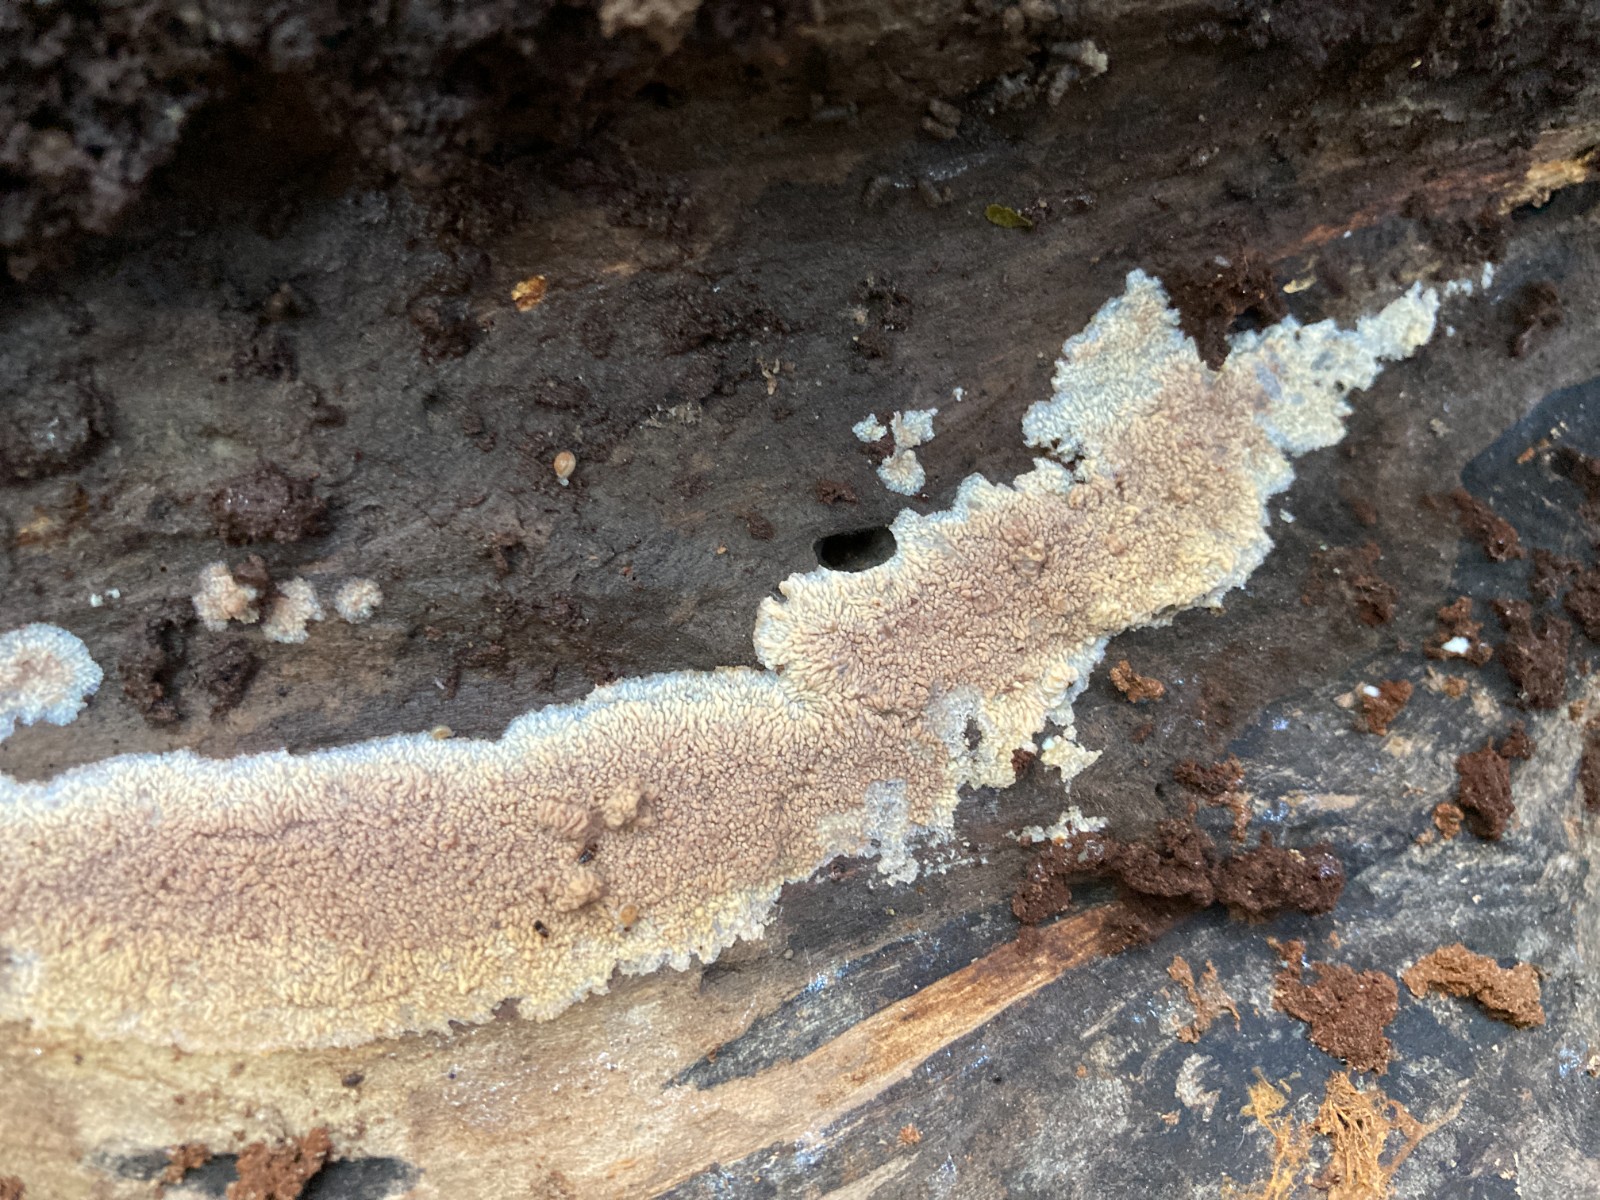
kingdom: Fungi
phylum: Basidiomycota
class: Agaricomycetes
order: Polyporales
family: Meruliaceae
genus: Phlebia
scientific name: Phlebia radiata
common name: stråle-åresvamp
